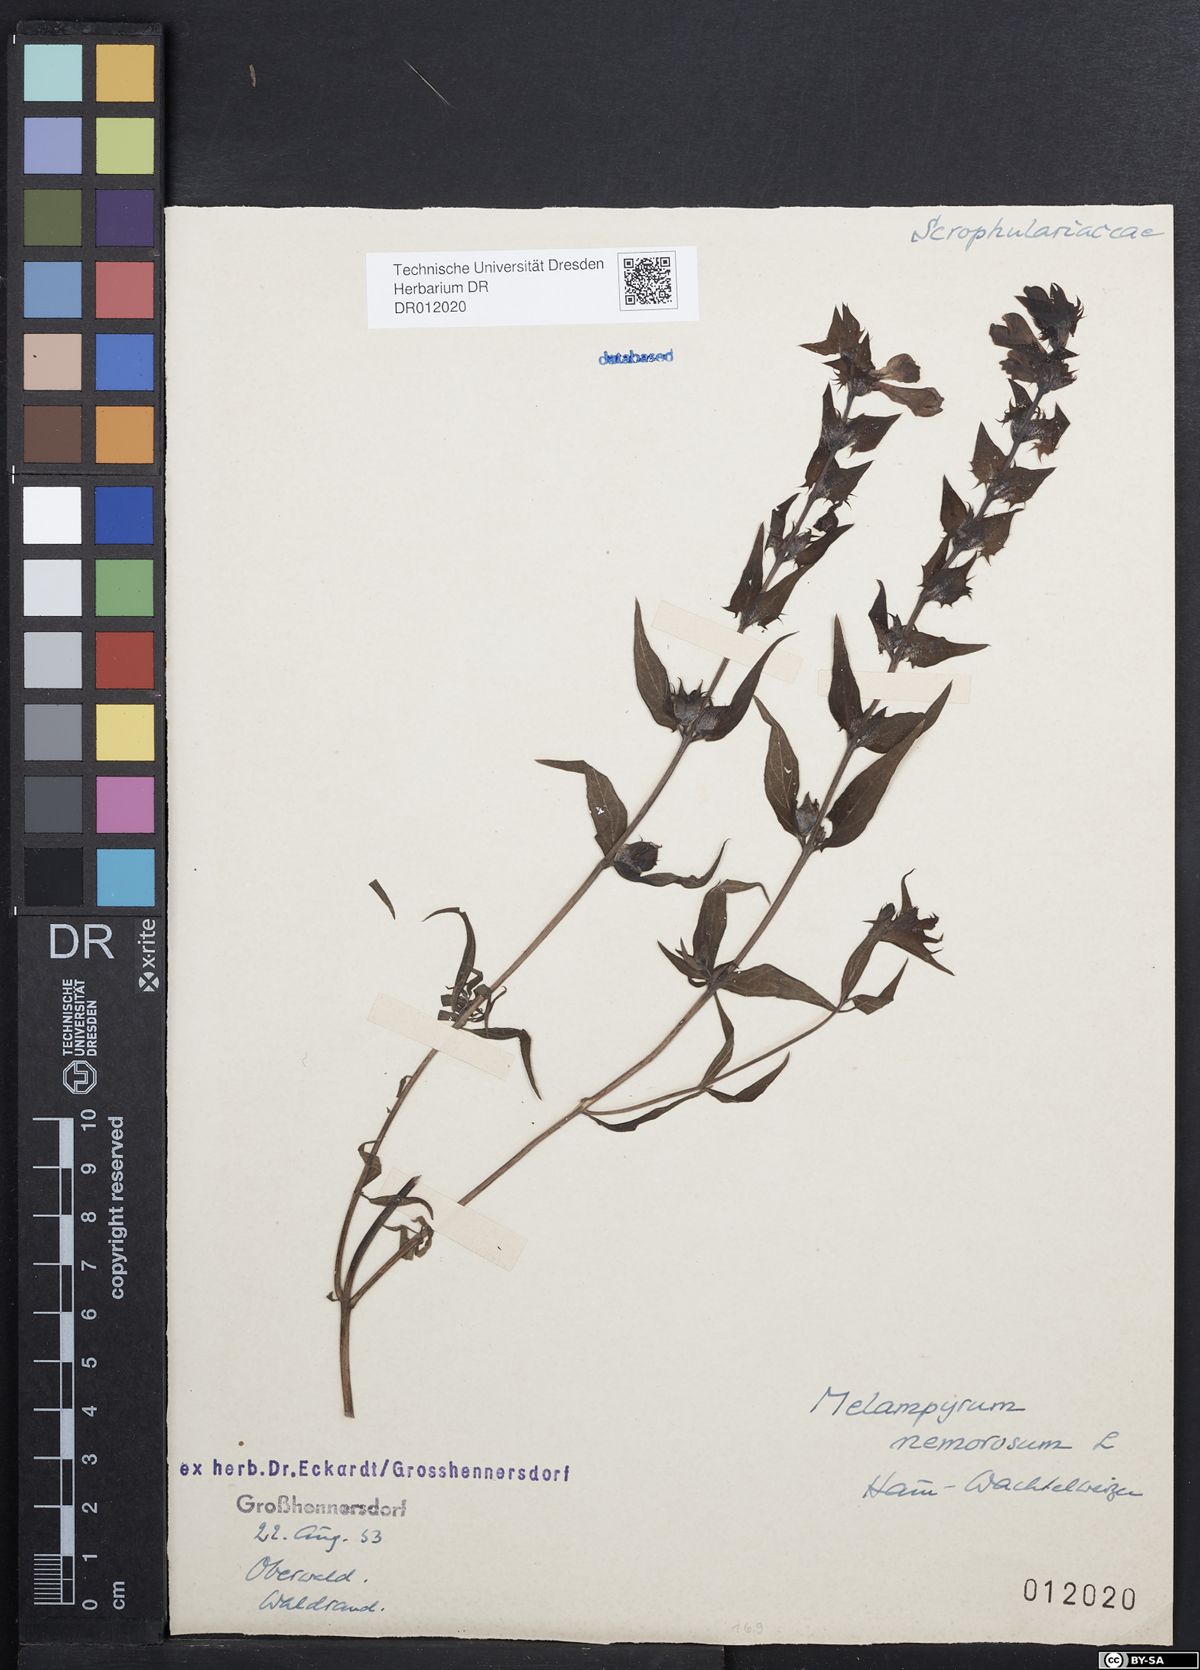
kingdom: Plantae
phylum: Tracheophyta
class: Magnoliopsida
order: Lamiales
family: Orobanchaceae
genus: Melampyrum
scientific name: Melampyrum nemorosum
